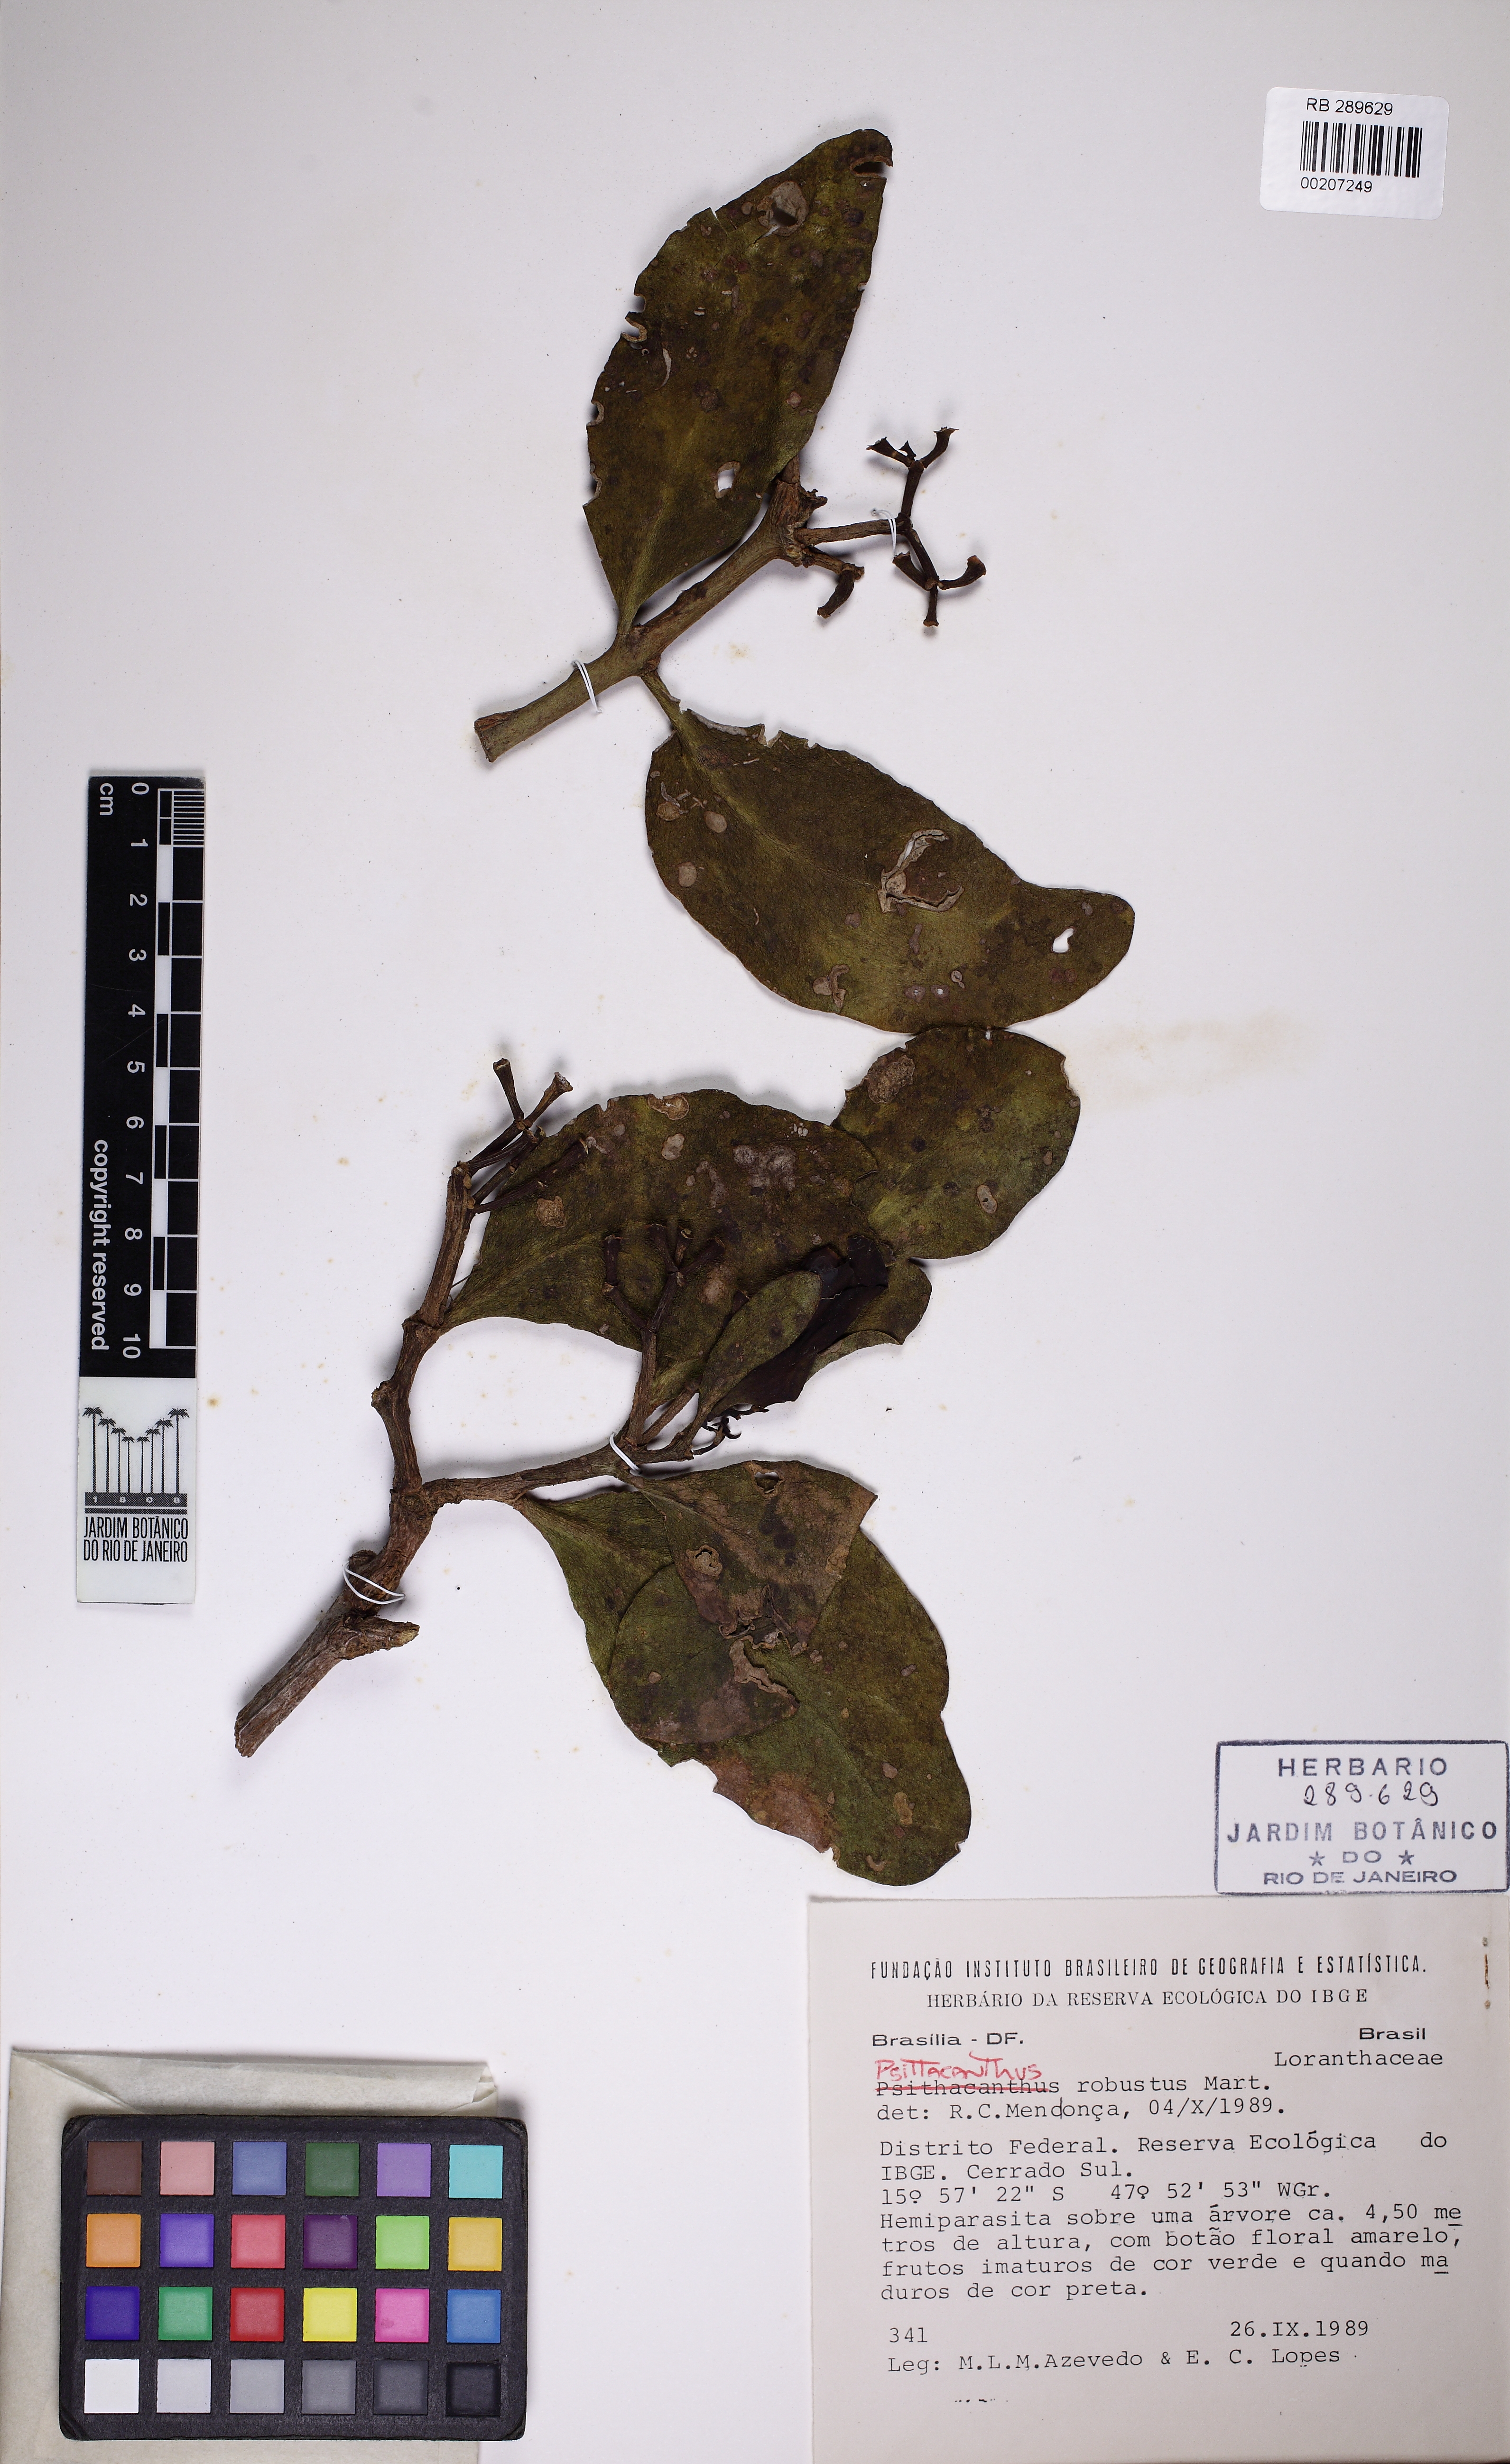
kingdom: Plantae
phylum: Tracheophyta
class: Magnoliopsida
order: Santalales
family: Loranthaceae
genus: Psittacanthus
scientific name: Psittacanthus robustus
